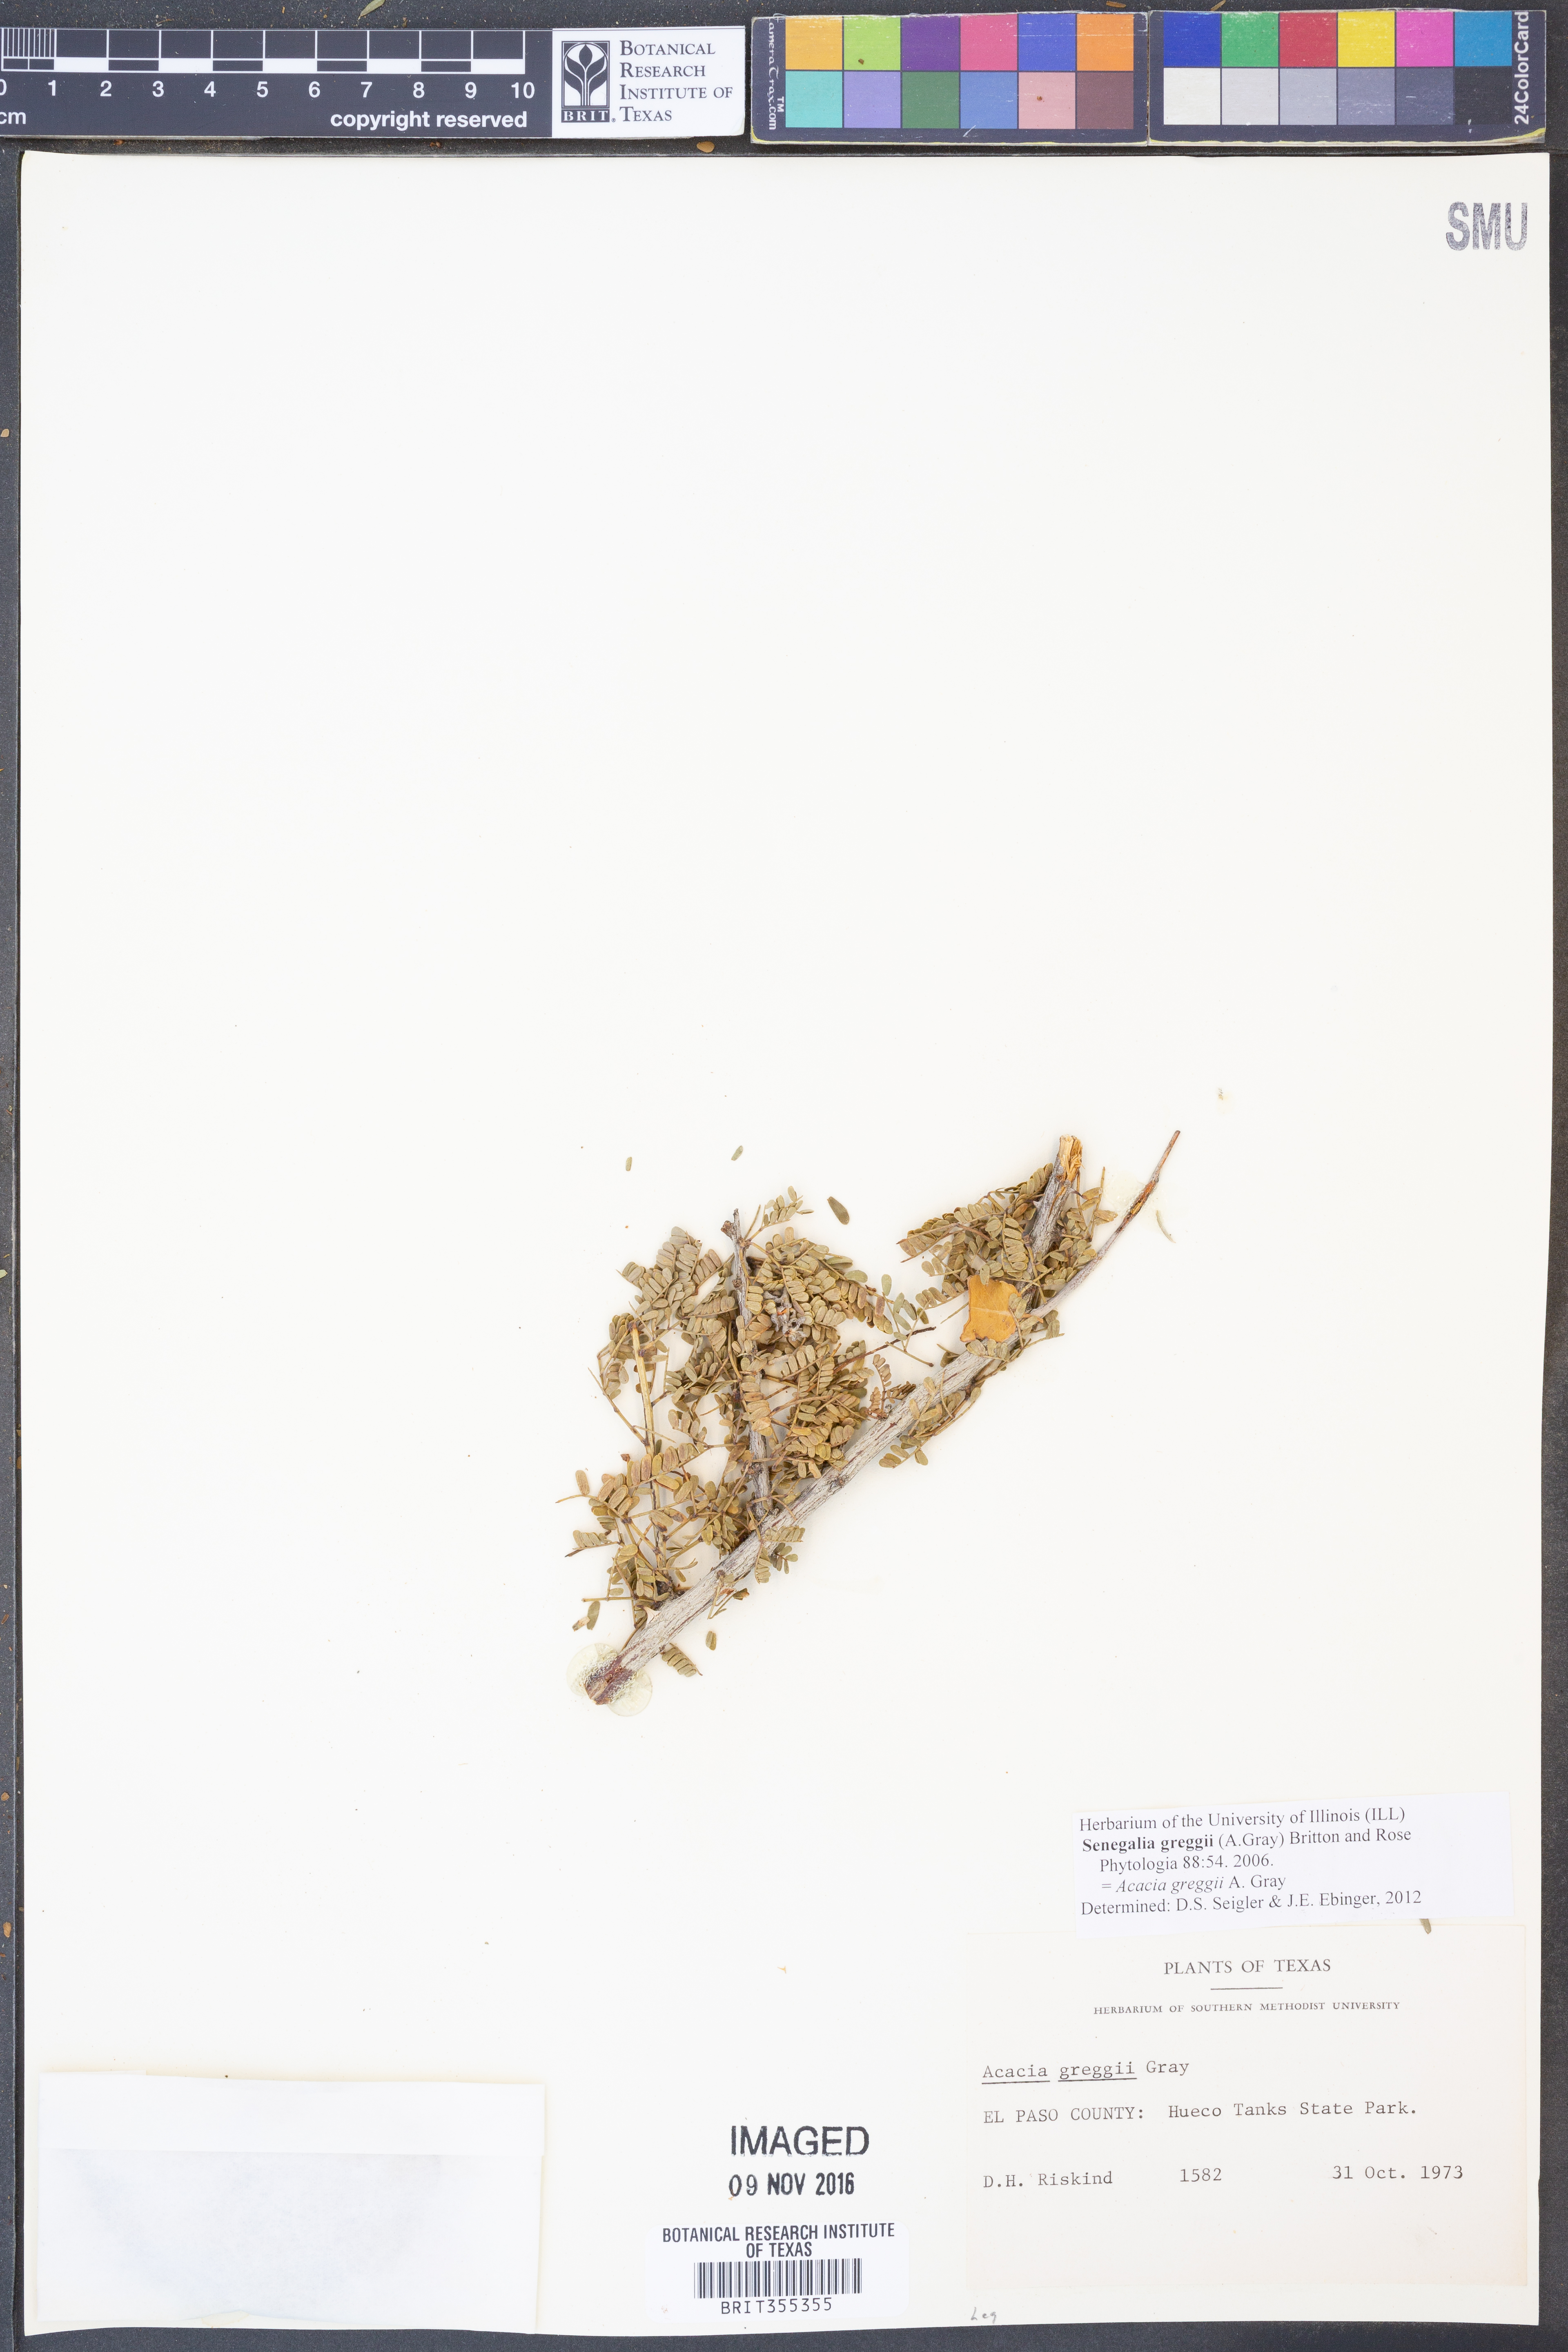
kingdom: Plantae
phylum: Tracheophyta
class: Magnoliopsida
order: Fabales
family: Fabaceae
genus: Senegalia
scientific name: Senegalia greggii
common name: Texas-mimosa
